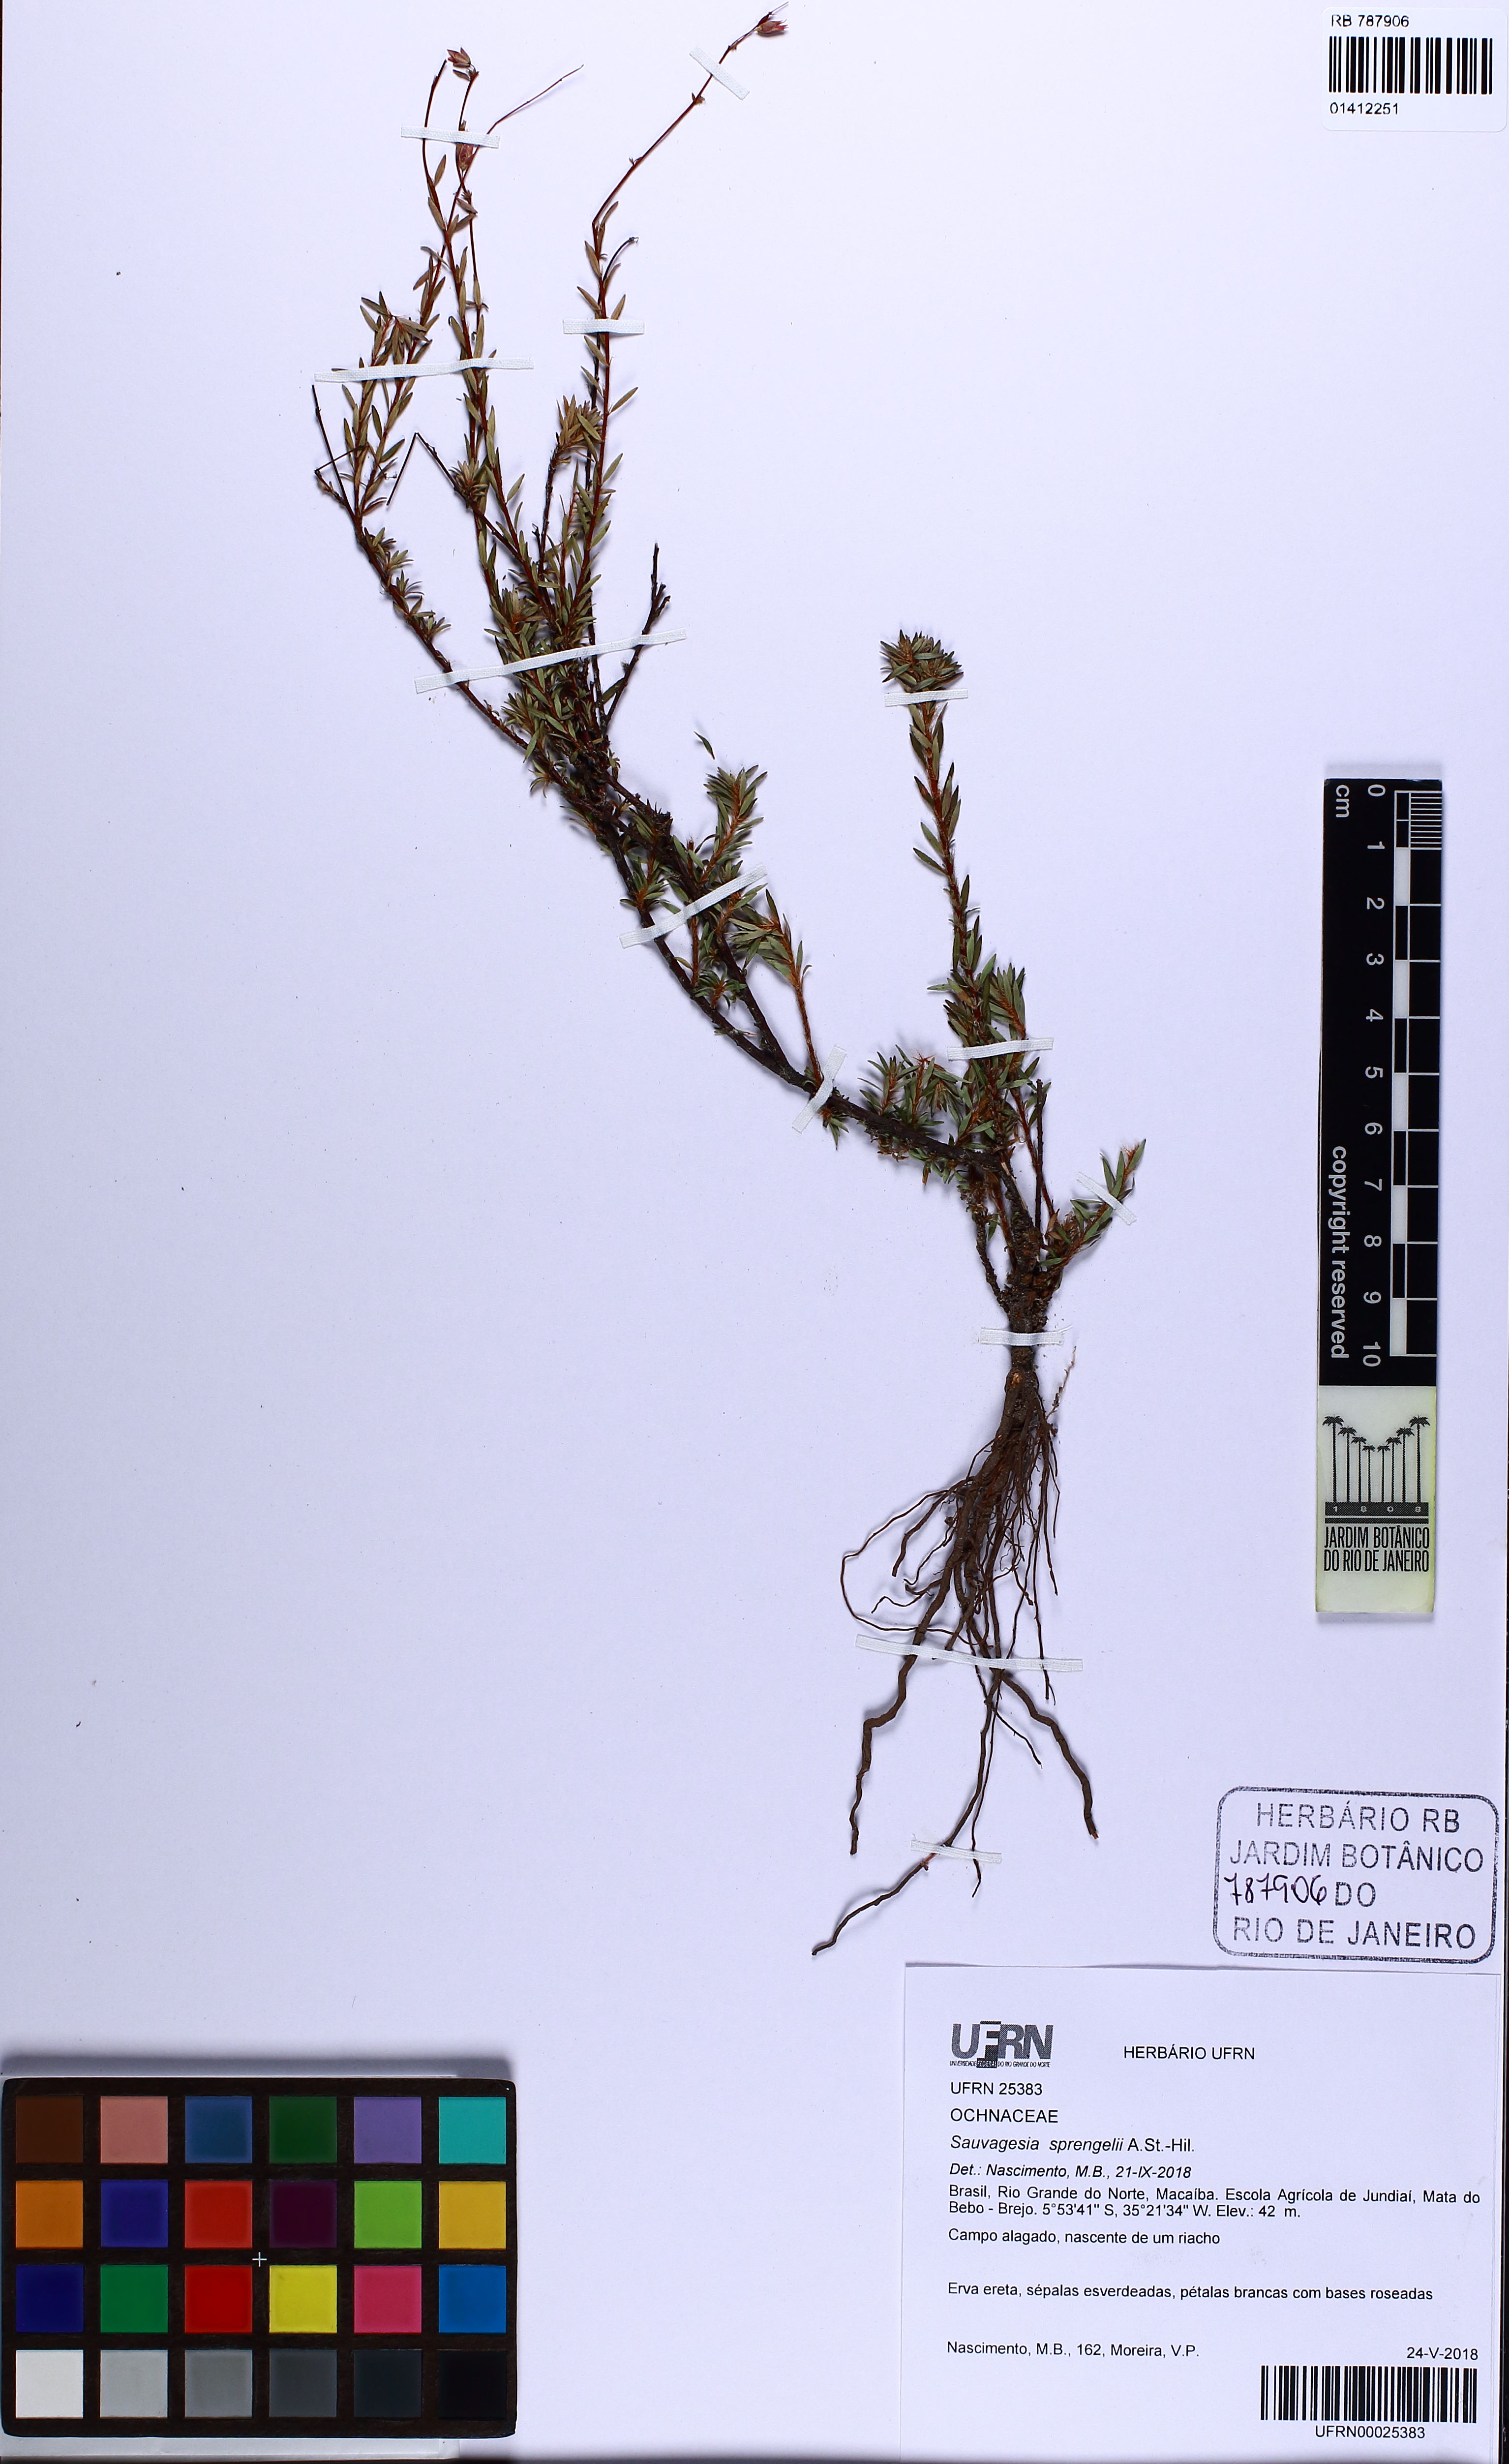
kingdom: Plantae
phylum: Tracheophyta
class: Magnoliopsida
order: Malpighiales
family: Ochnaceae
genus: Sauvagesia
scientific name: Sauvagesia sprengelii
